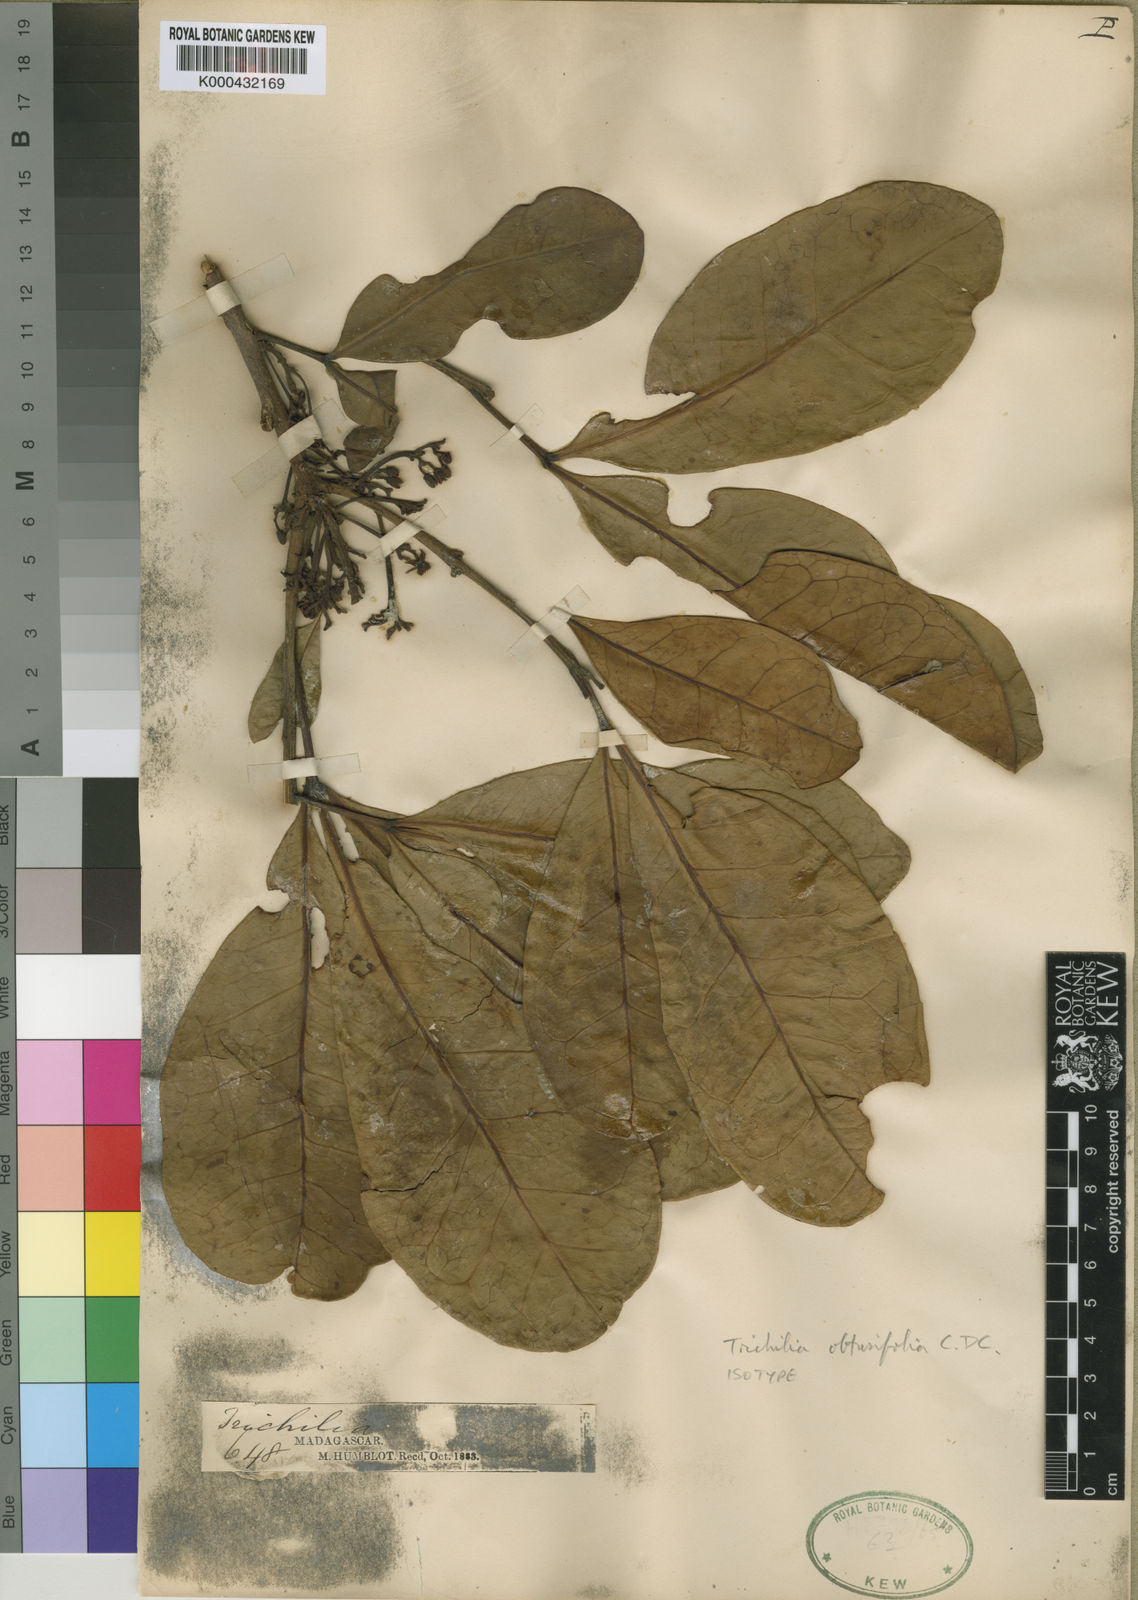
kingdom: Plantae
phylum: Tracheophyta
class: Magnoliopsida
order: Sapindales
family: Meliaceae
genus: Malleastrum
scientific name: Malleastrum obtusifolium
